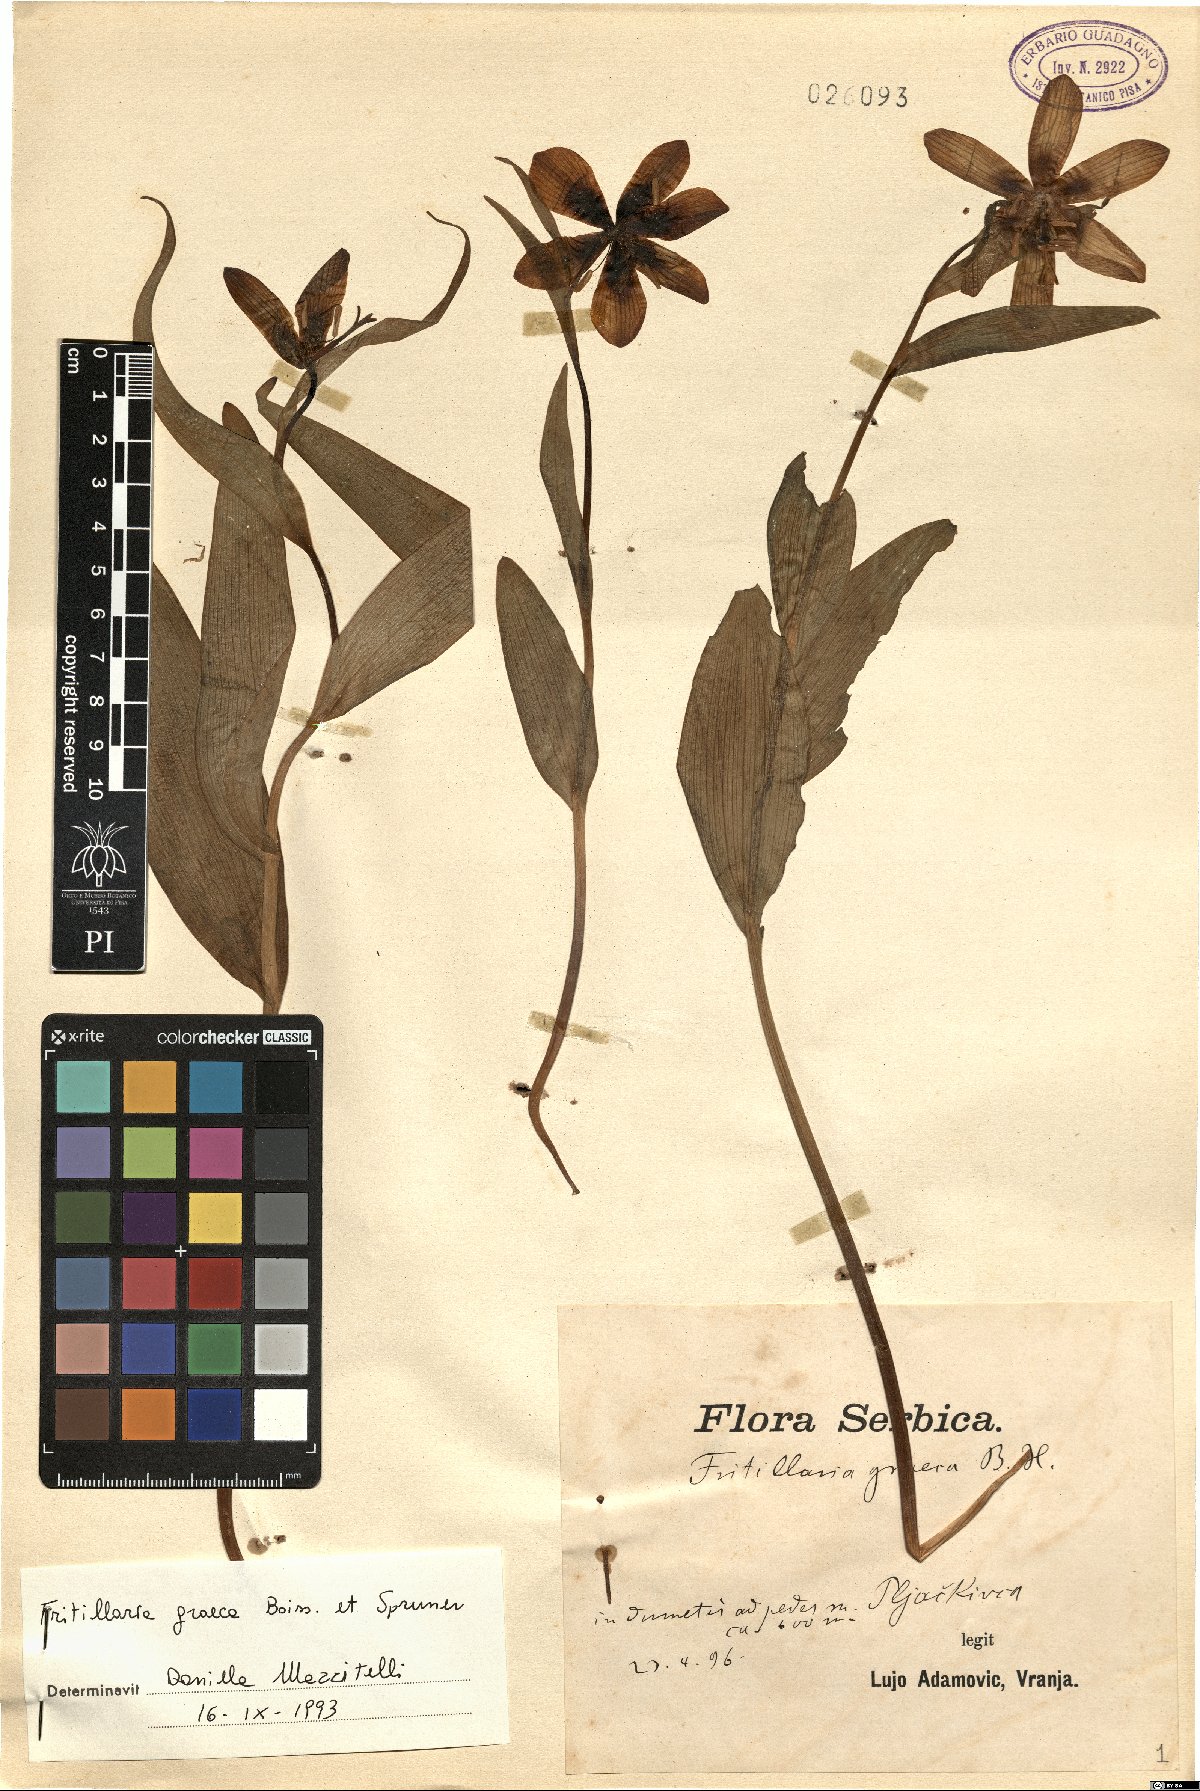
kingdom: Plantae
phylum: Tracheophyta
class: Liliopsida
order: Liliales
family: Liliaceae
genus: Fritillaria
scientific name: Fritillaria graeca
